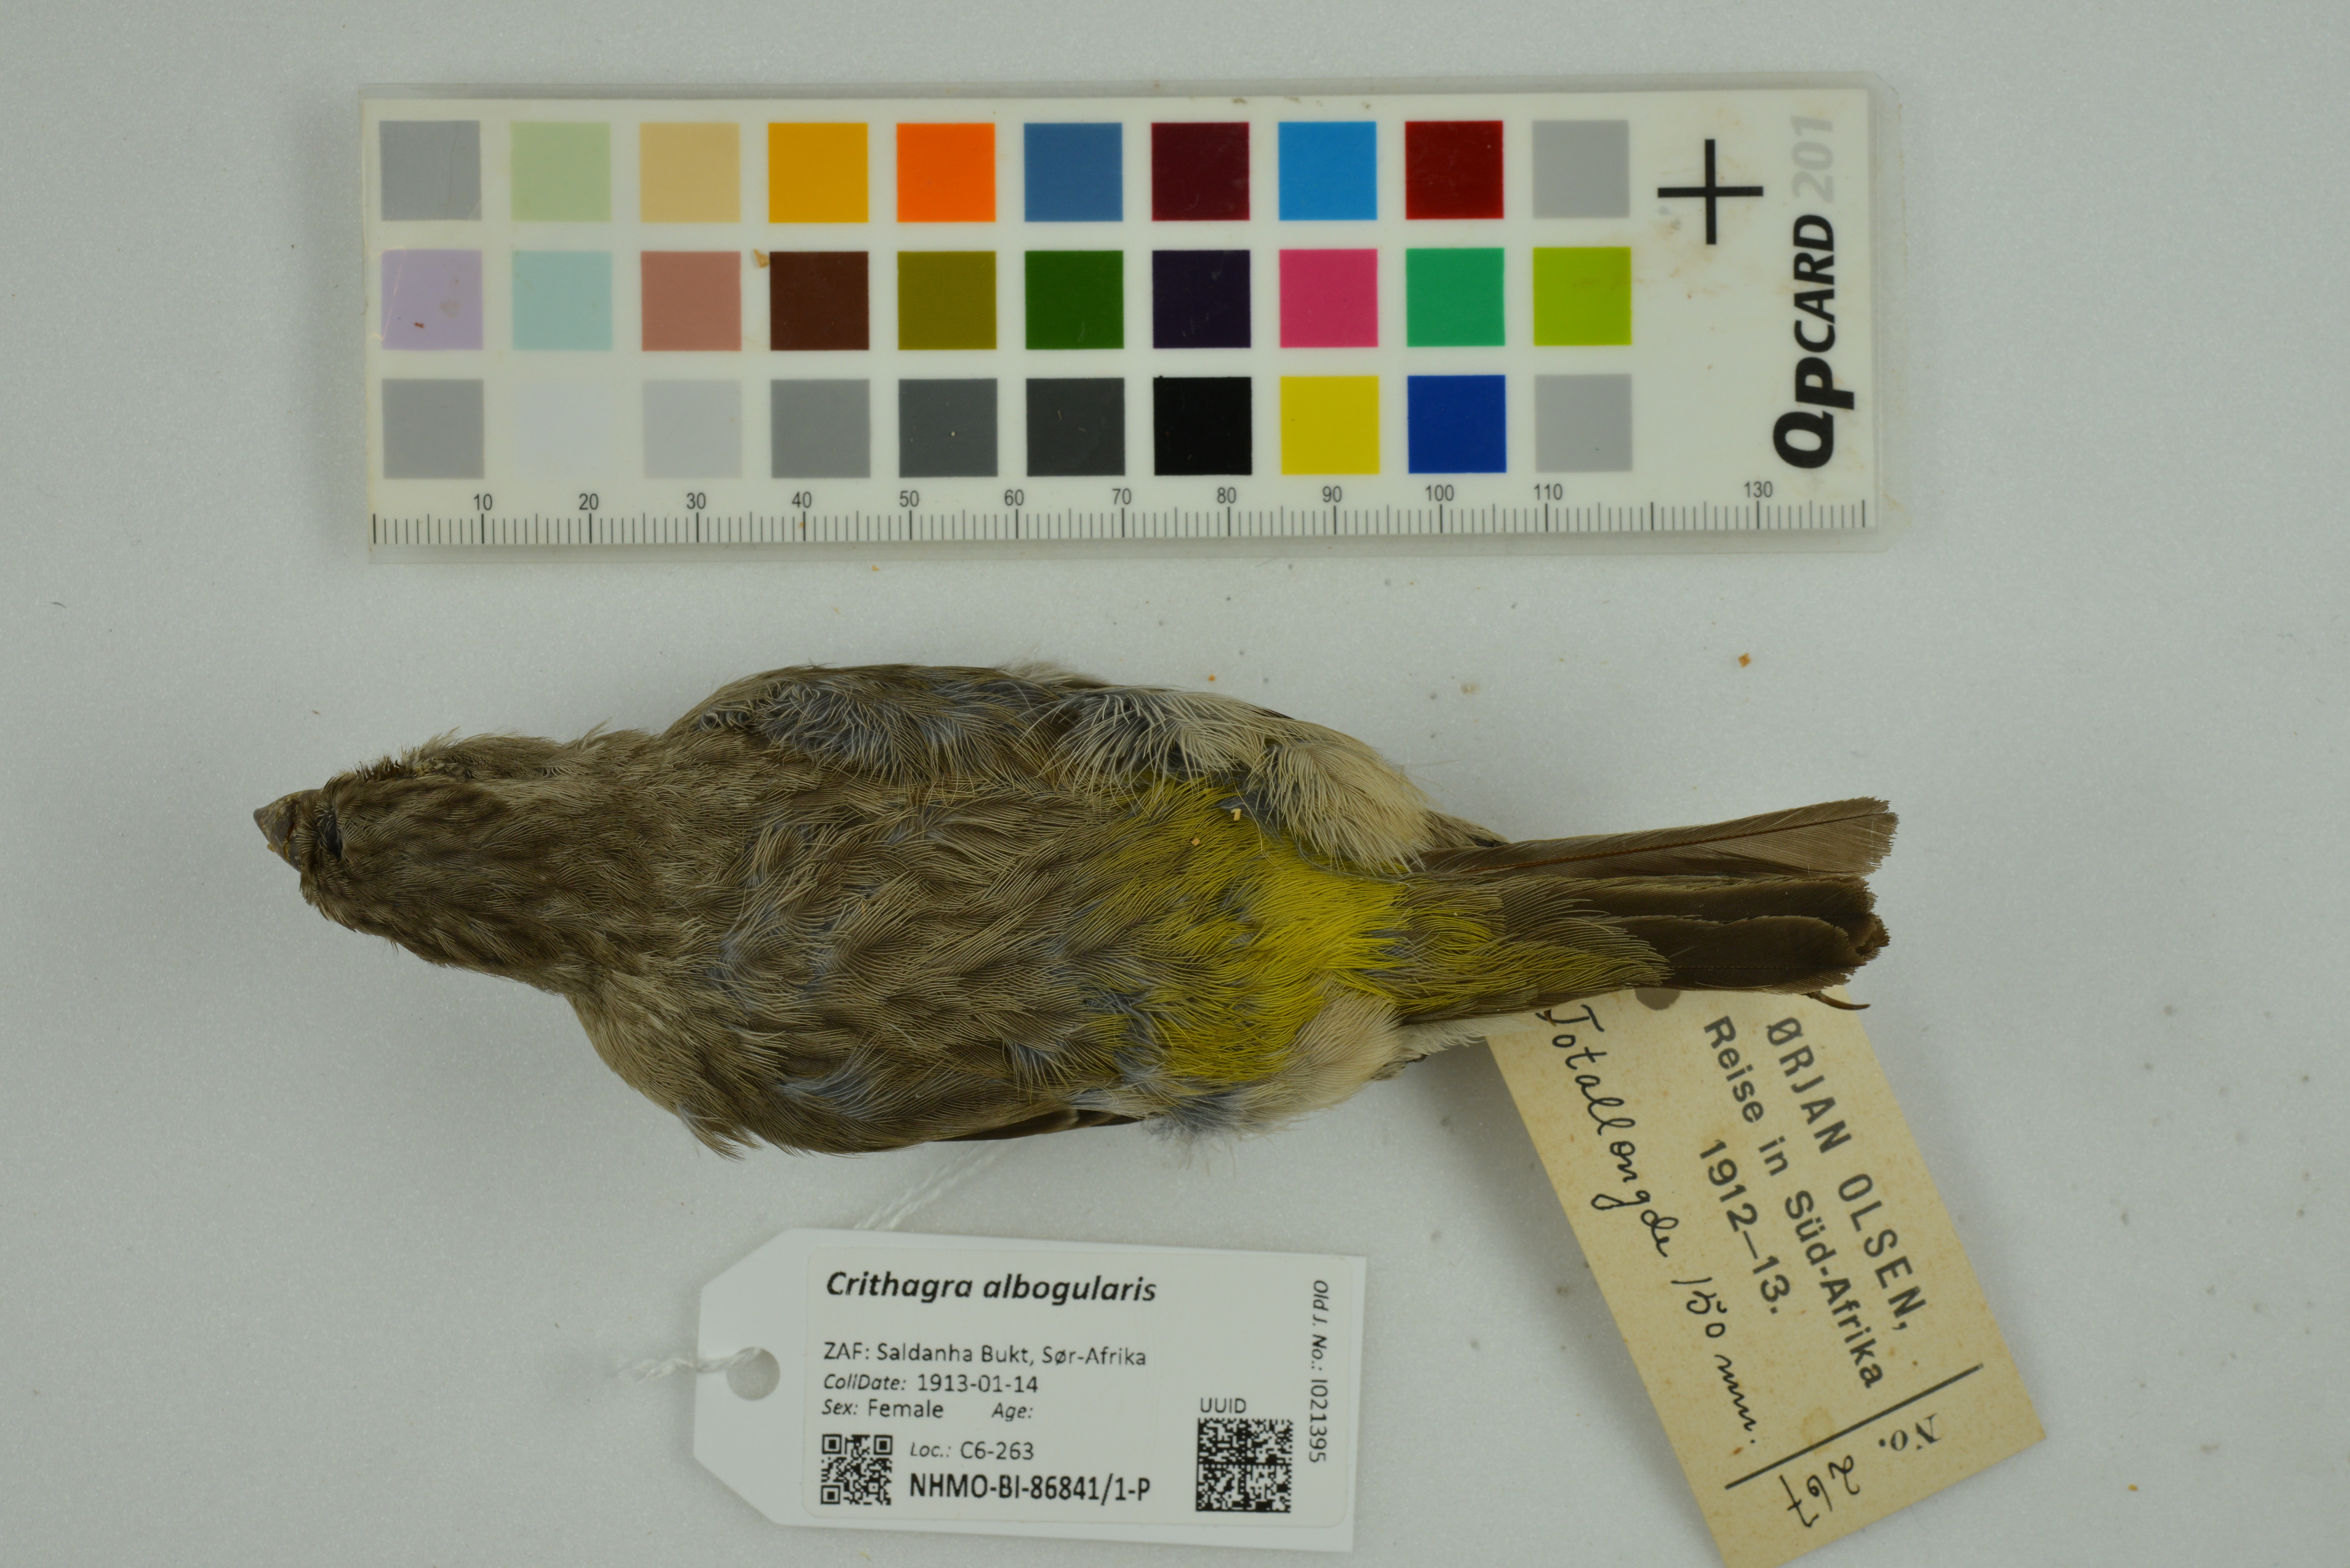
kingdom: Animalia
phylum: Chordata
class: Aves
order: Passeriformes
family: Fringillidae
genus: Crithagra
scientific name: Crithagra albogularis
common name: White-throated canary
